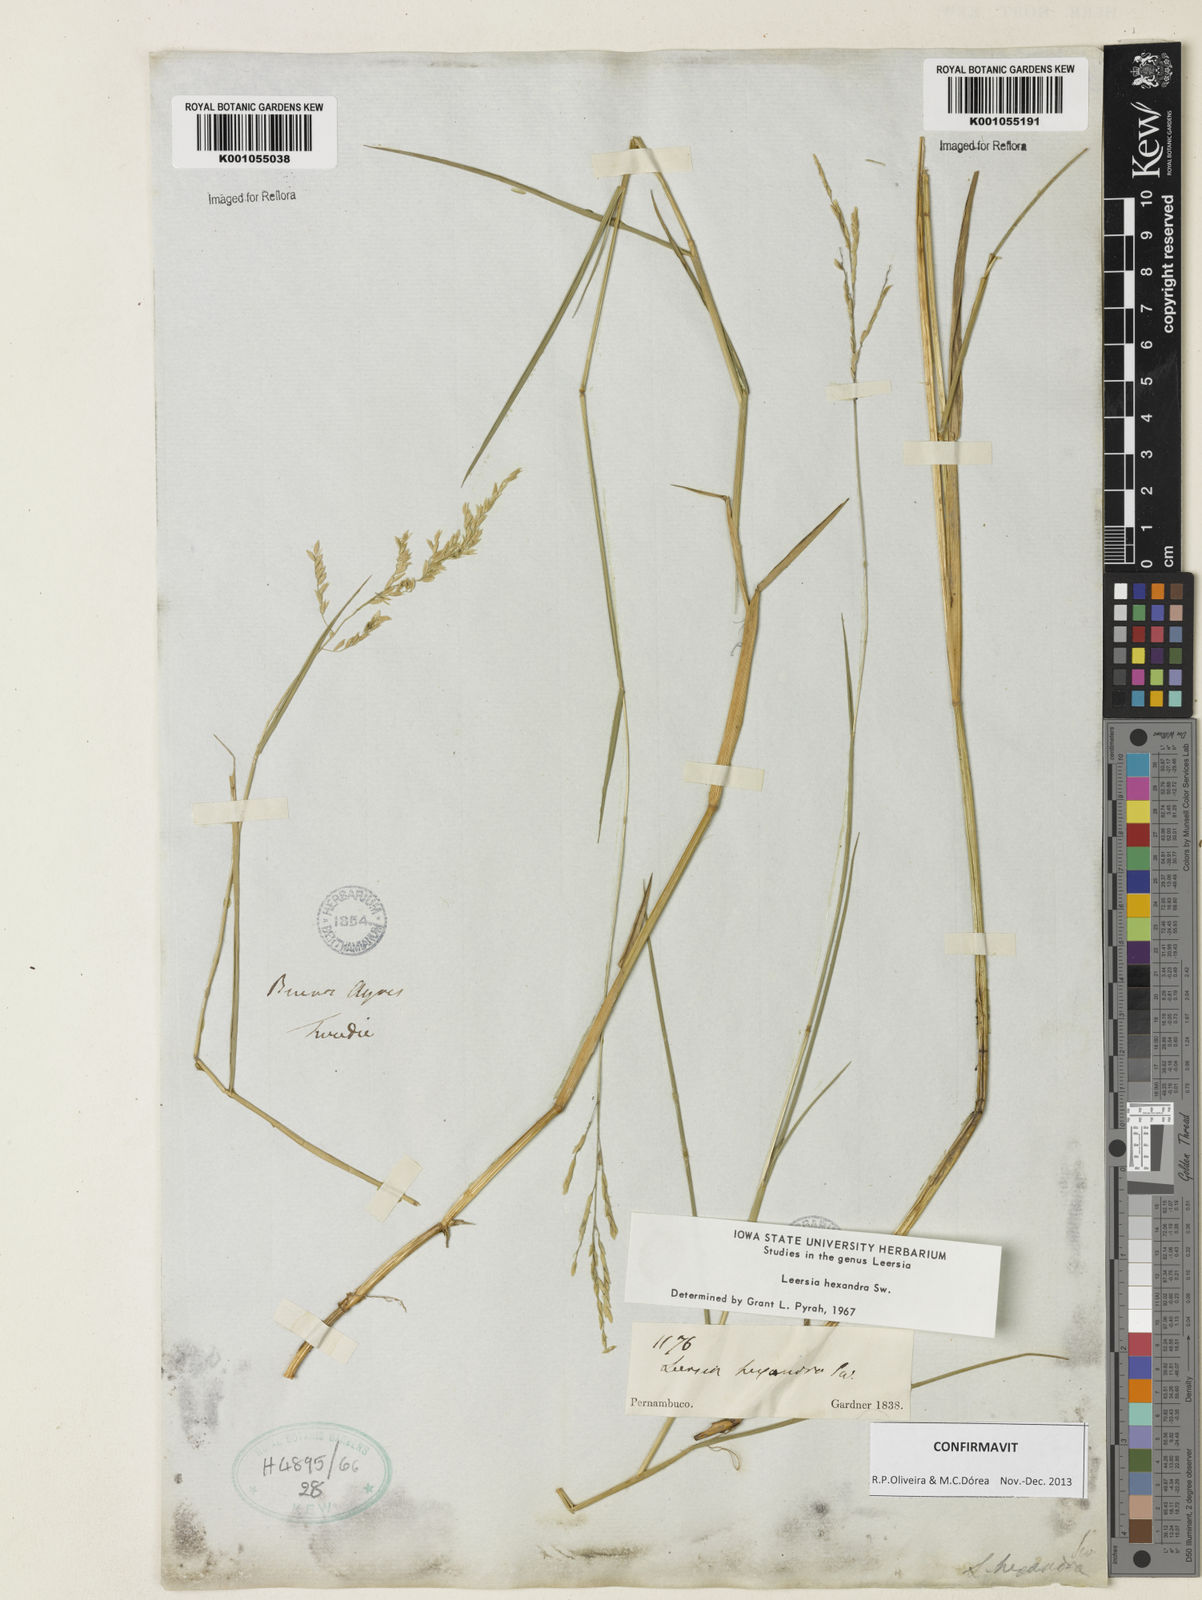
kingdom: Plantae
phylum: Tracheophyta
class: Liliopsida
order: Poales
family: Poaceae
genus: Leersia
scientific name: Leersia hexandra
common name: Southern cut grass
